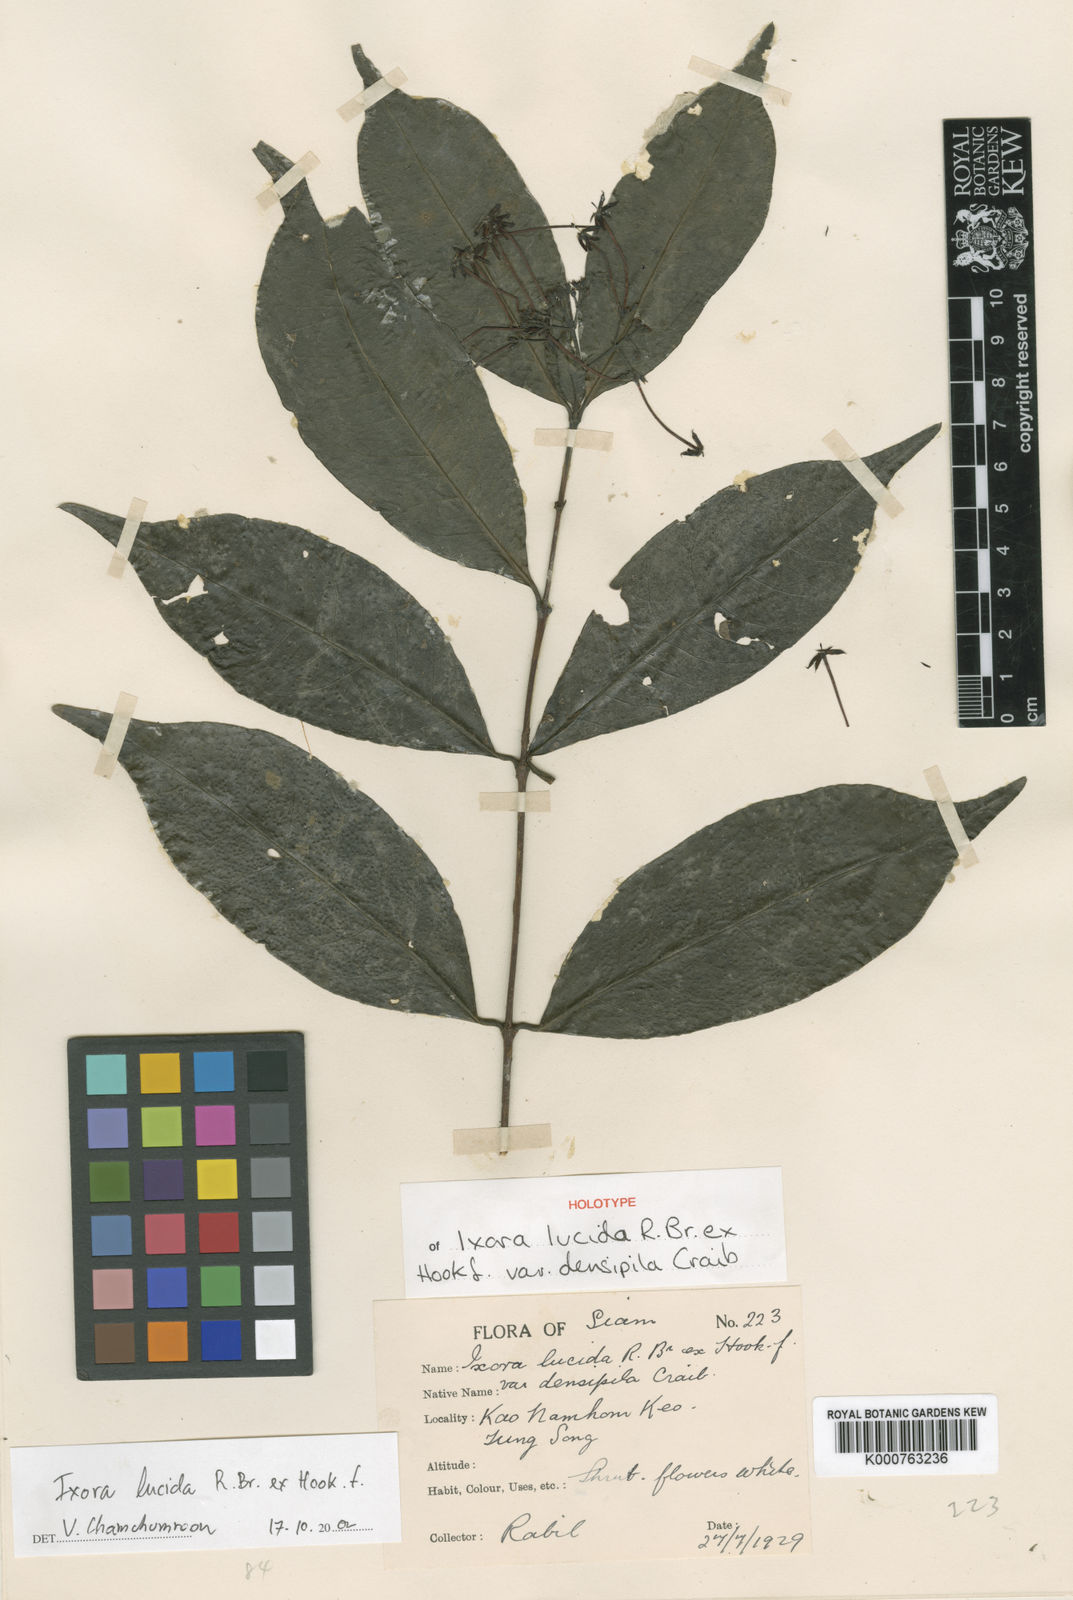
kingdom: Plantae
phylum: Tracheophyta
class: Magnoliopsida
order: Gentianales
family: Rubiaceae
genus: Ixora
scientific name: Ixora lucida
